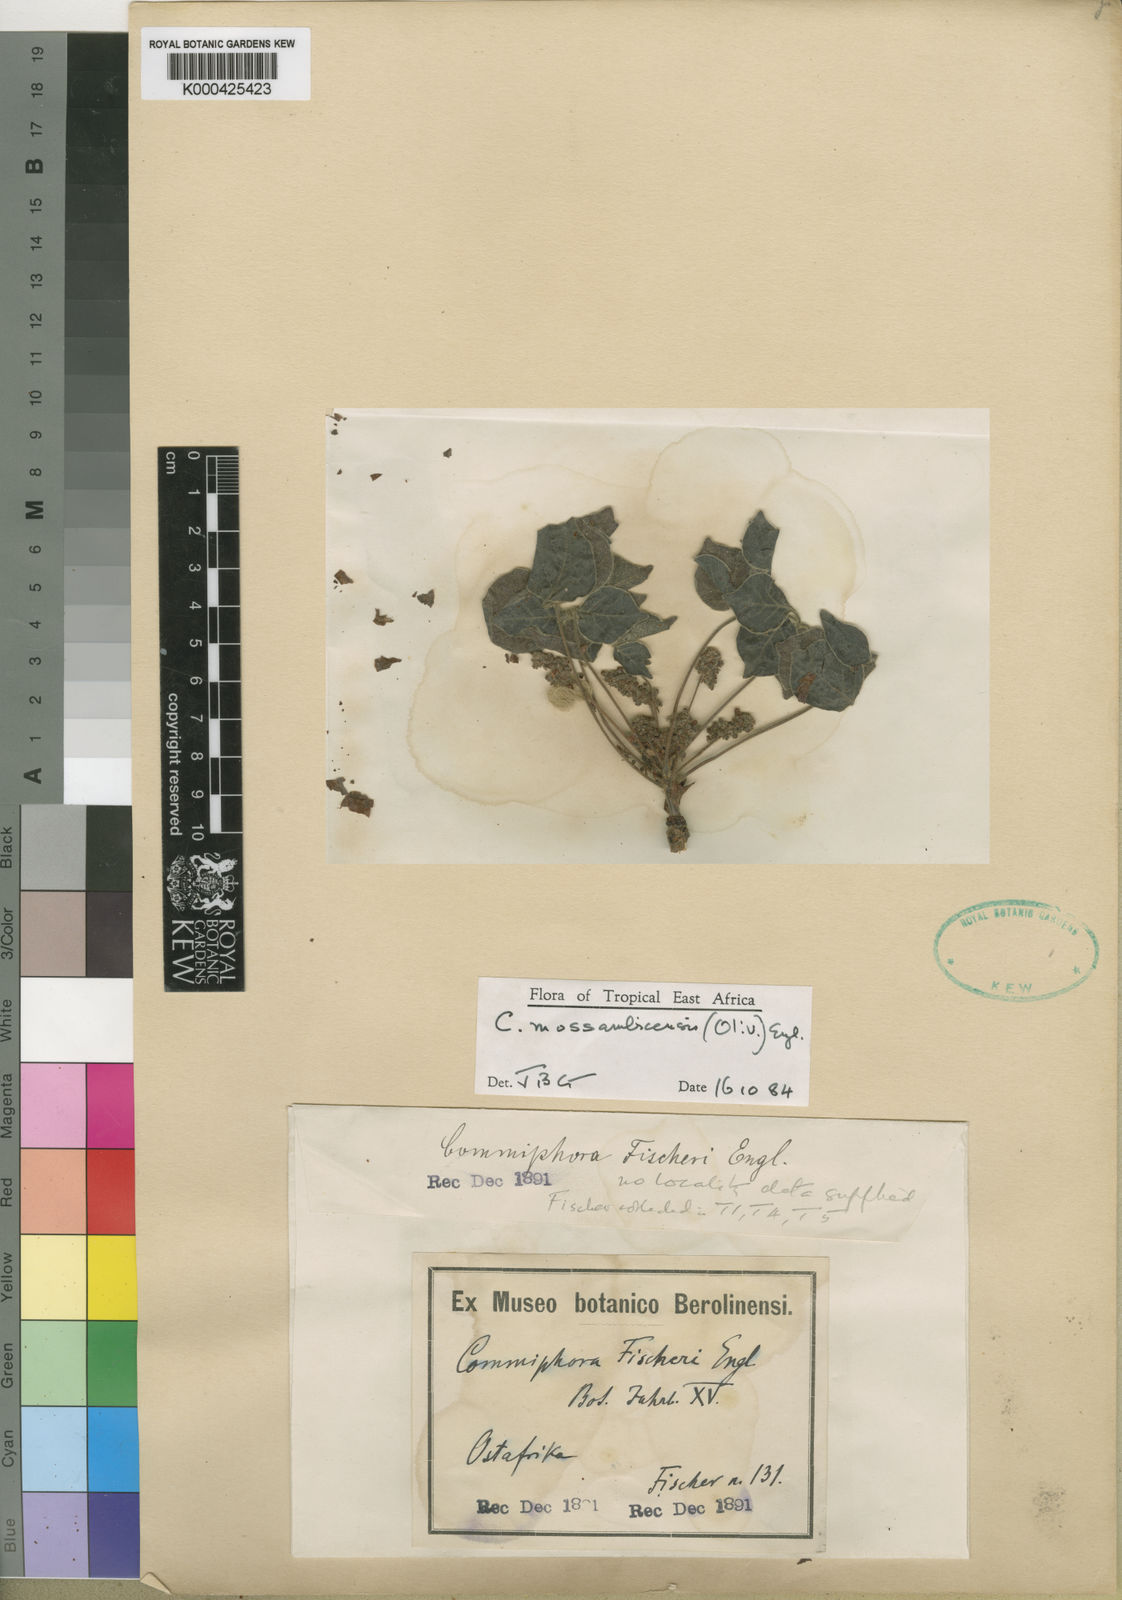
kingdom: Plantae
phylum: Tracheophyta
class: Magnoliopsida
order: Sapindales
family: Burseraceae
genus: Commiphora
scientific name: Commiphora mossambicensis
